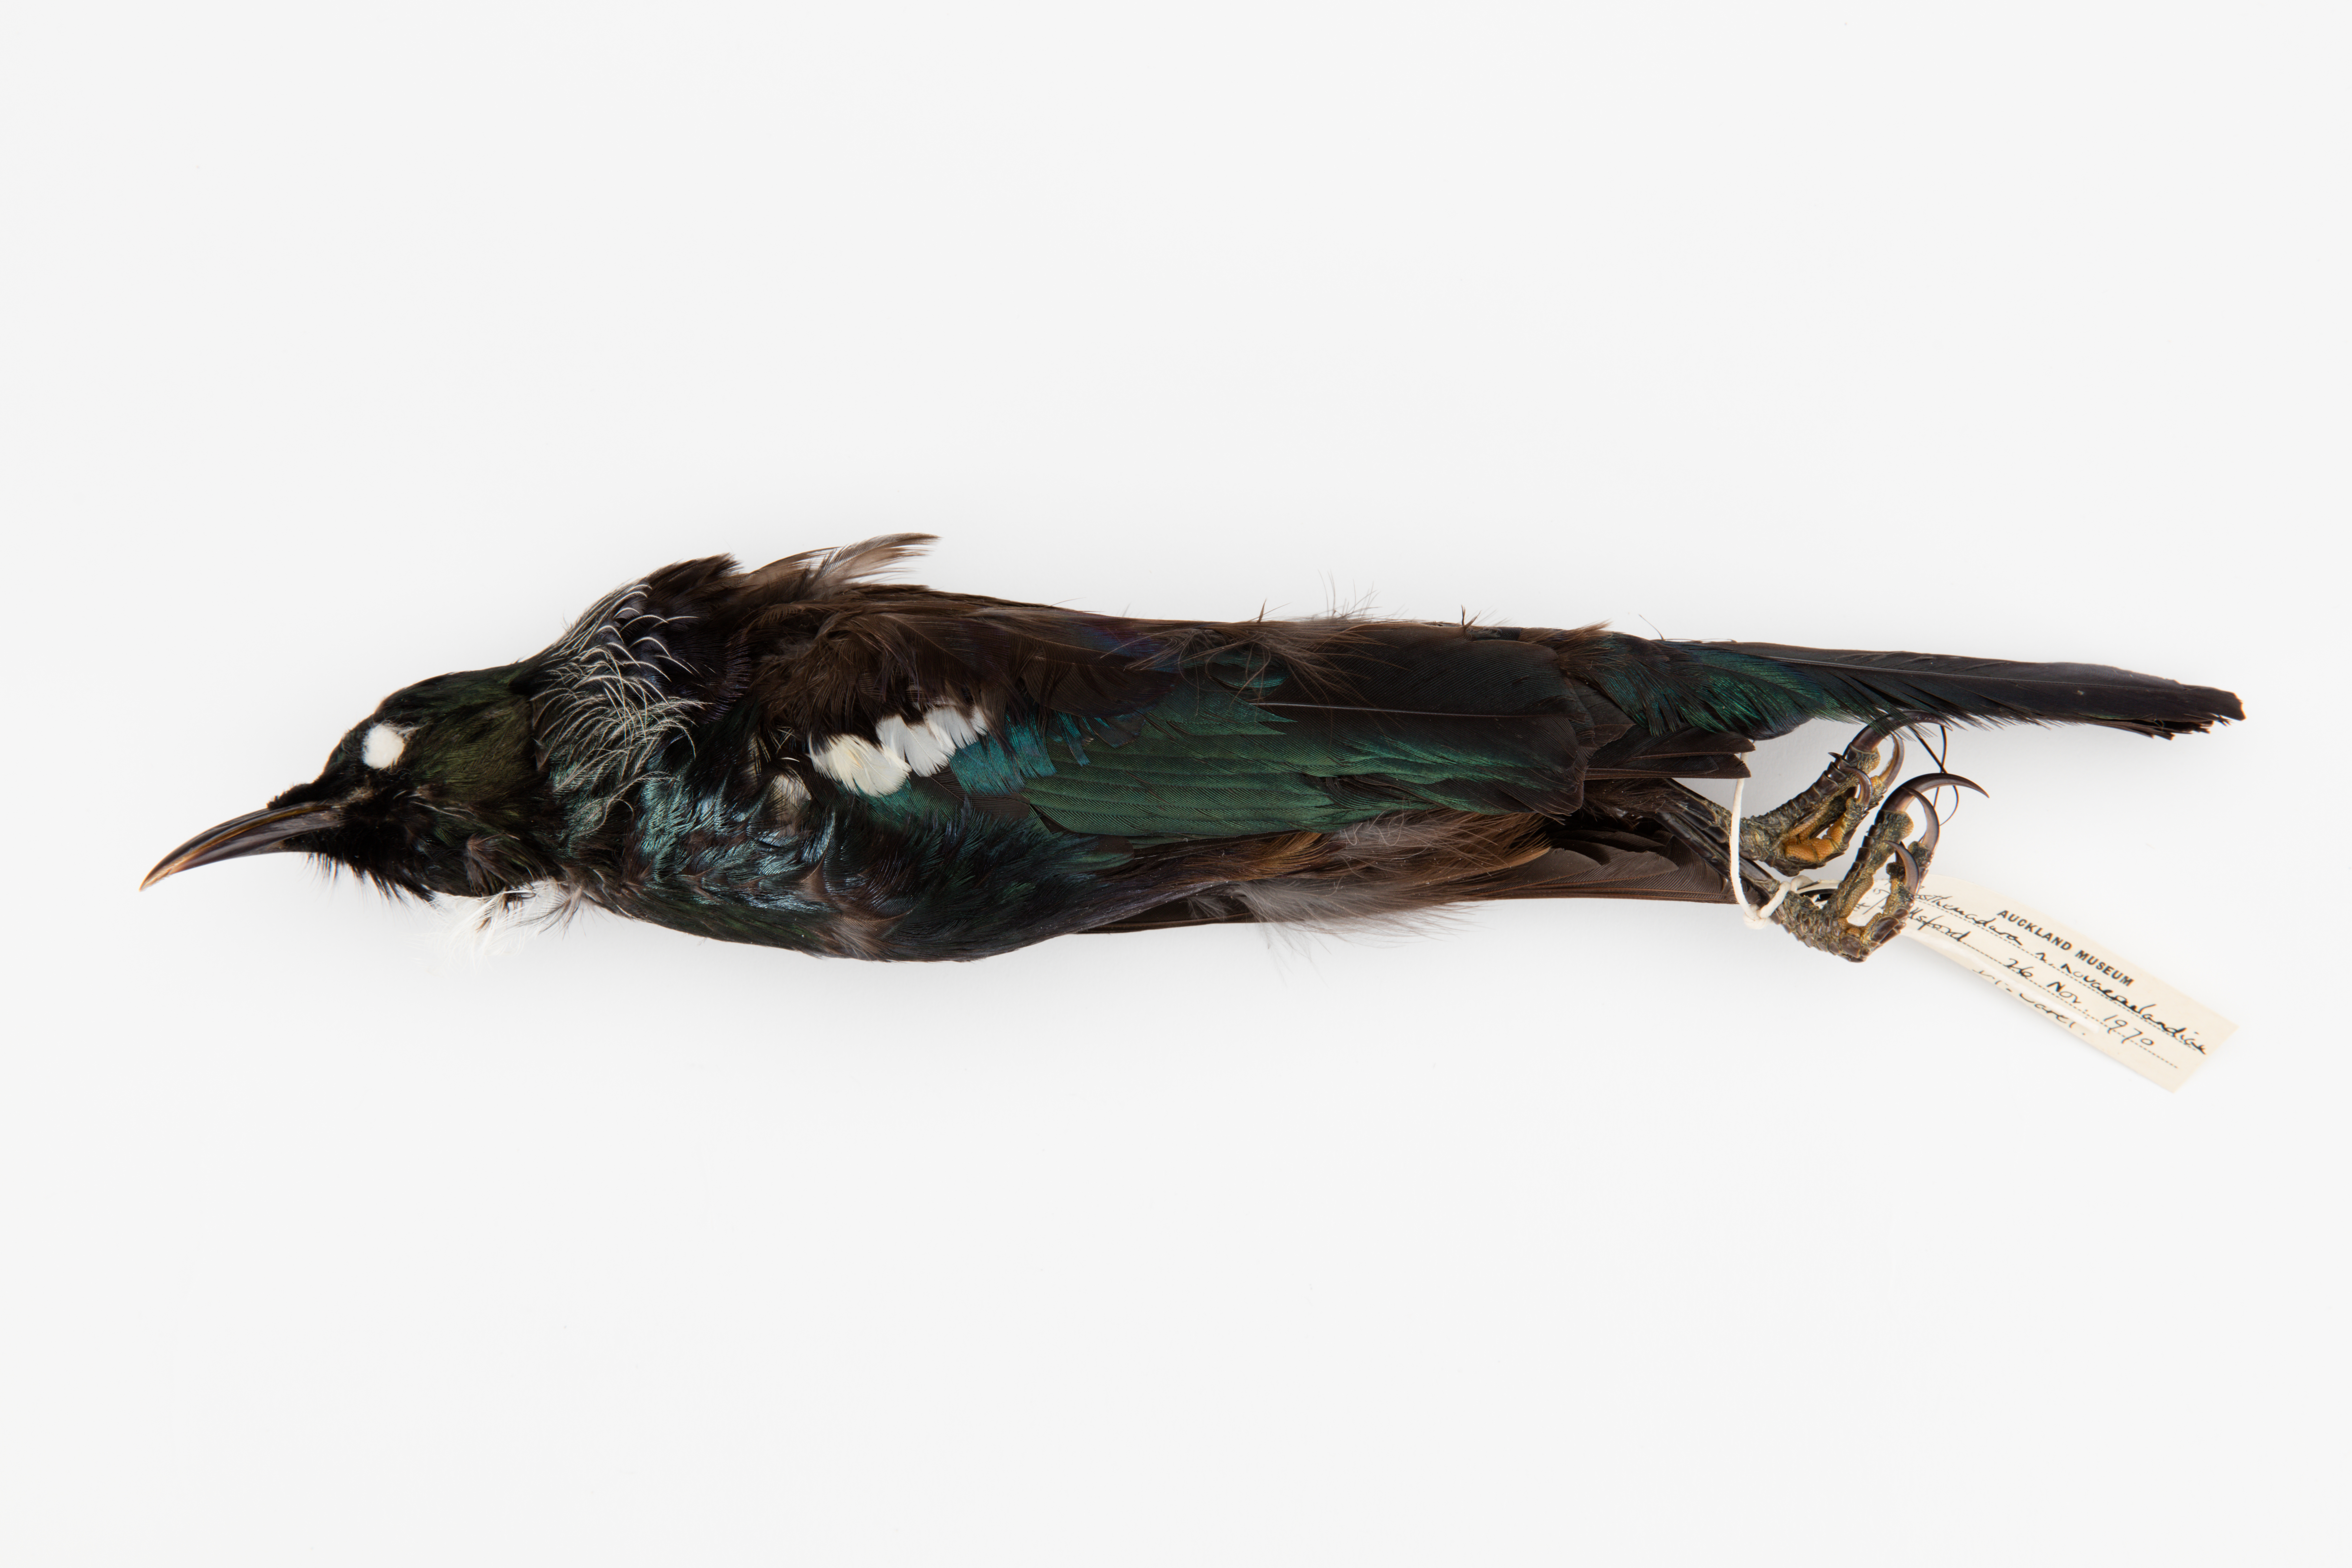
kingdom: Animalia
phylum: Chordata
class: Aves
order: Passeriformes
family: Meliphagidae
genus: Prosthemadera
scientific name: Prosthemadera novaeseelandiae
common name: Tui
